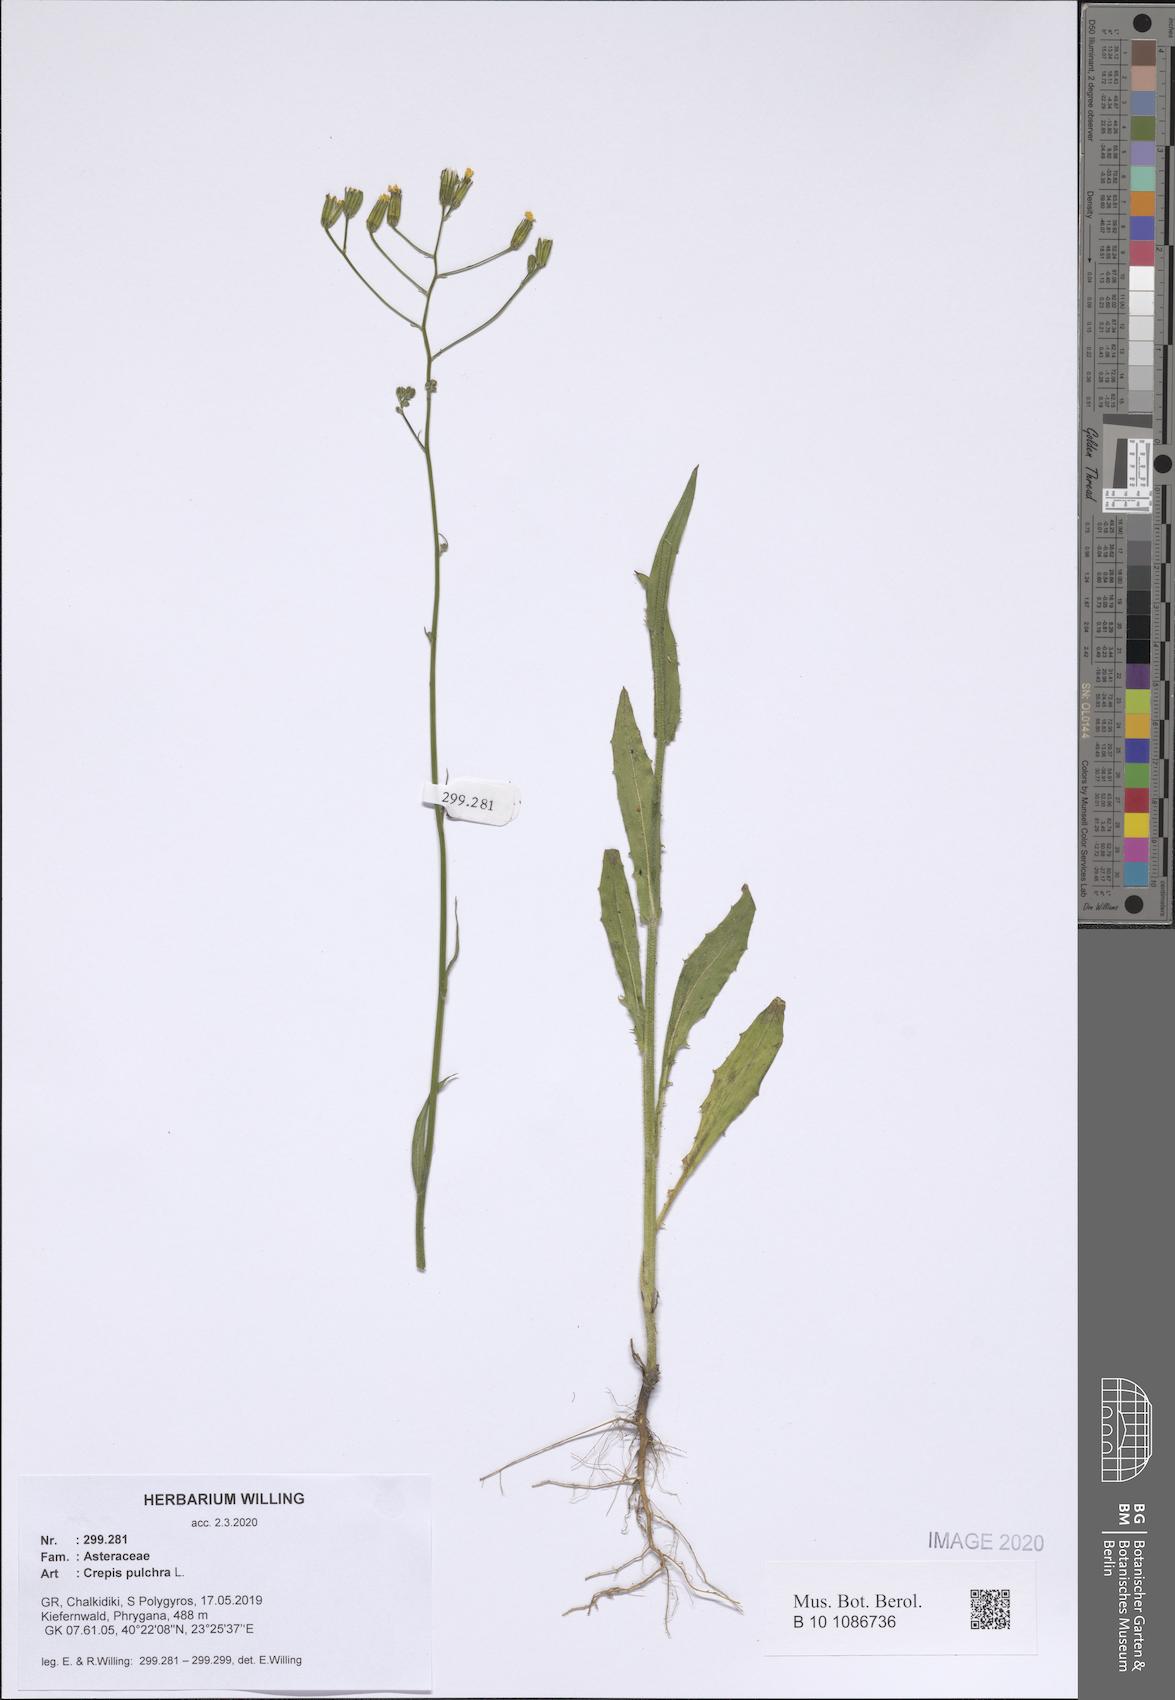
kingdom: Plantae
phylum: Tracheophyta
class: Magnoliopsida
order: Asterales
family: Asteraceae
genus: Crepis
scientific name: Crepis pulchra
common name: Hawk's-beard
